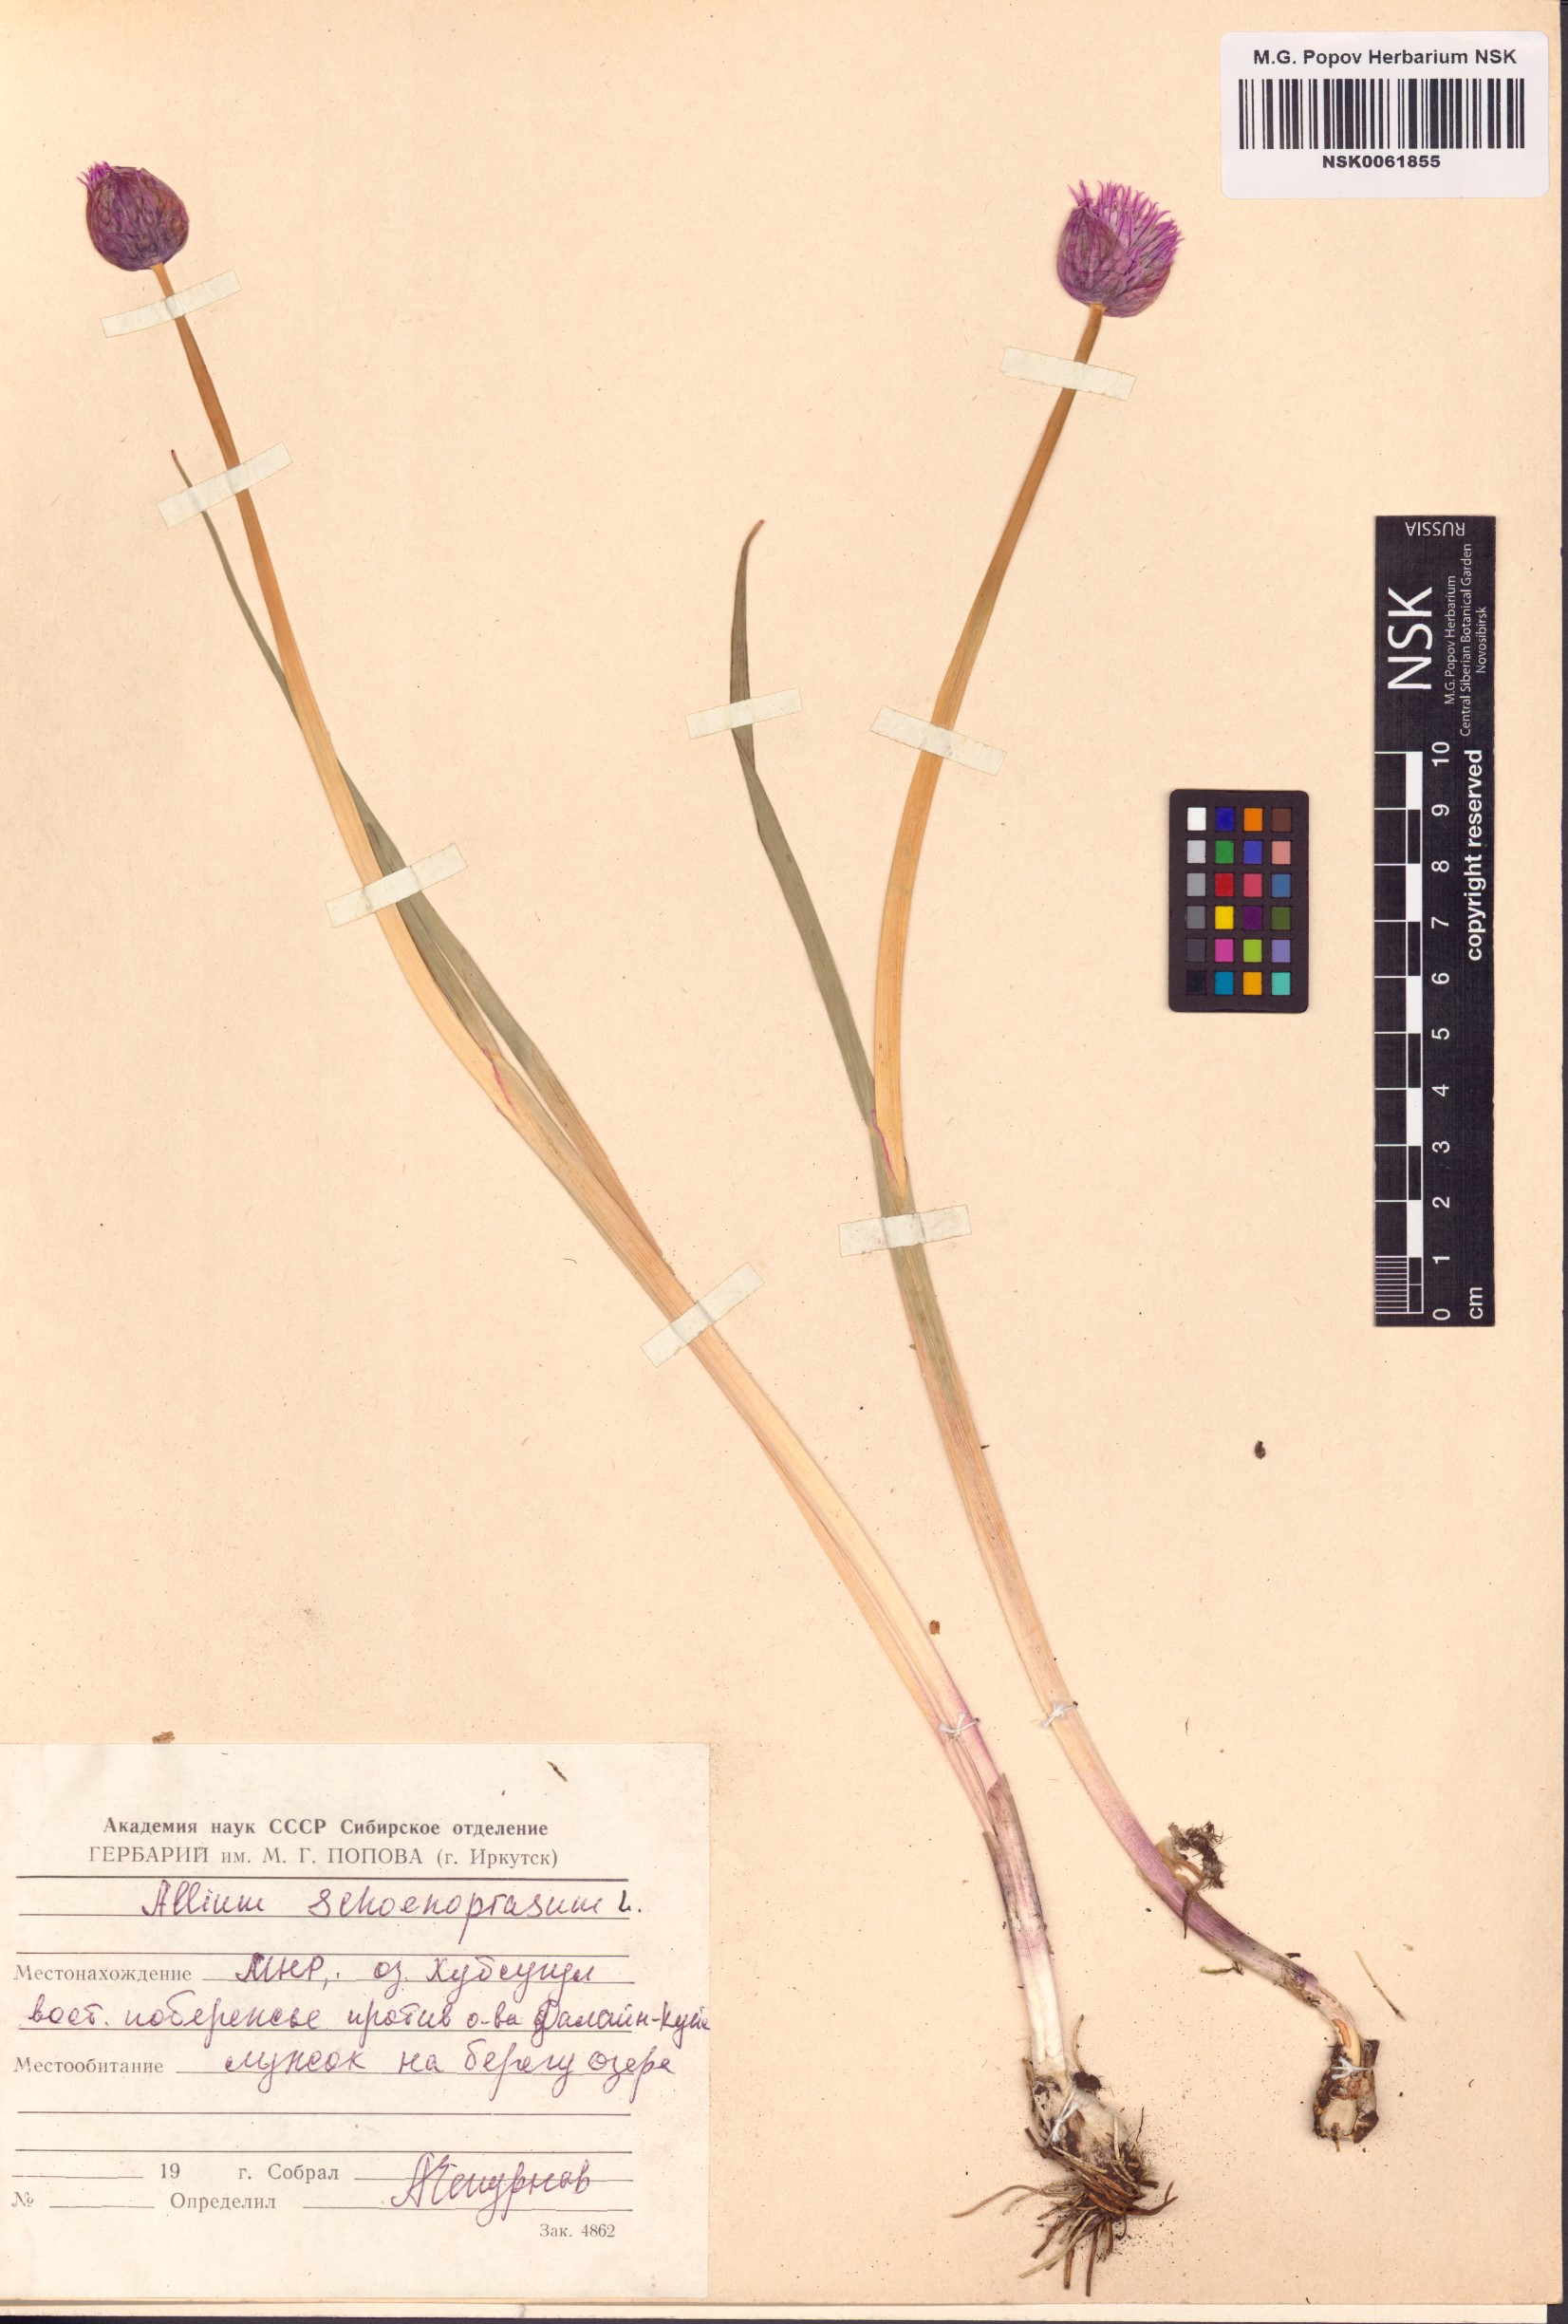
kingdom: Plantae
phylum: Tracheophyta
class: Liliopsida
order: Asparagales
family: Amaryllidaceae
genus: Allium
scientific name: Allium schoenoprasum
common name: Chives
